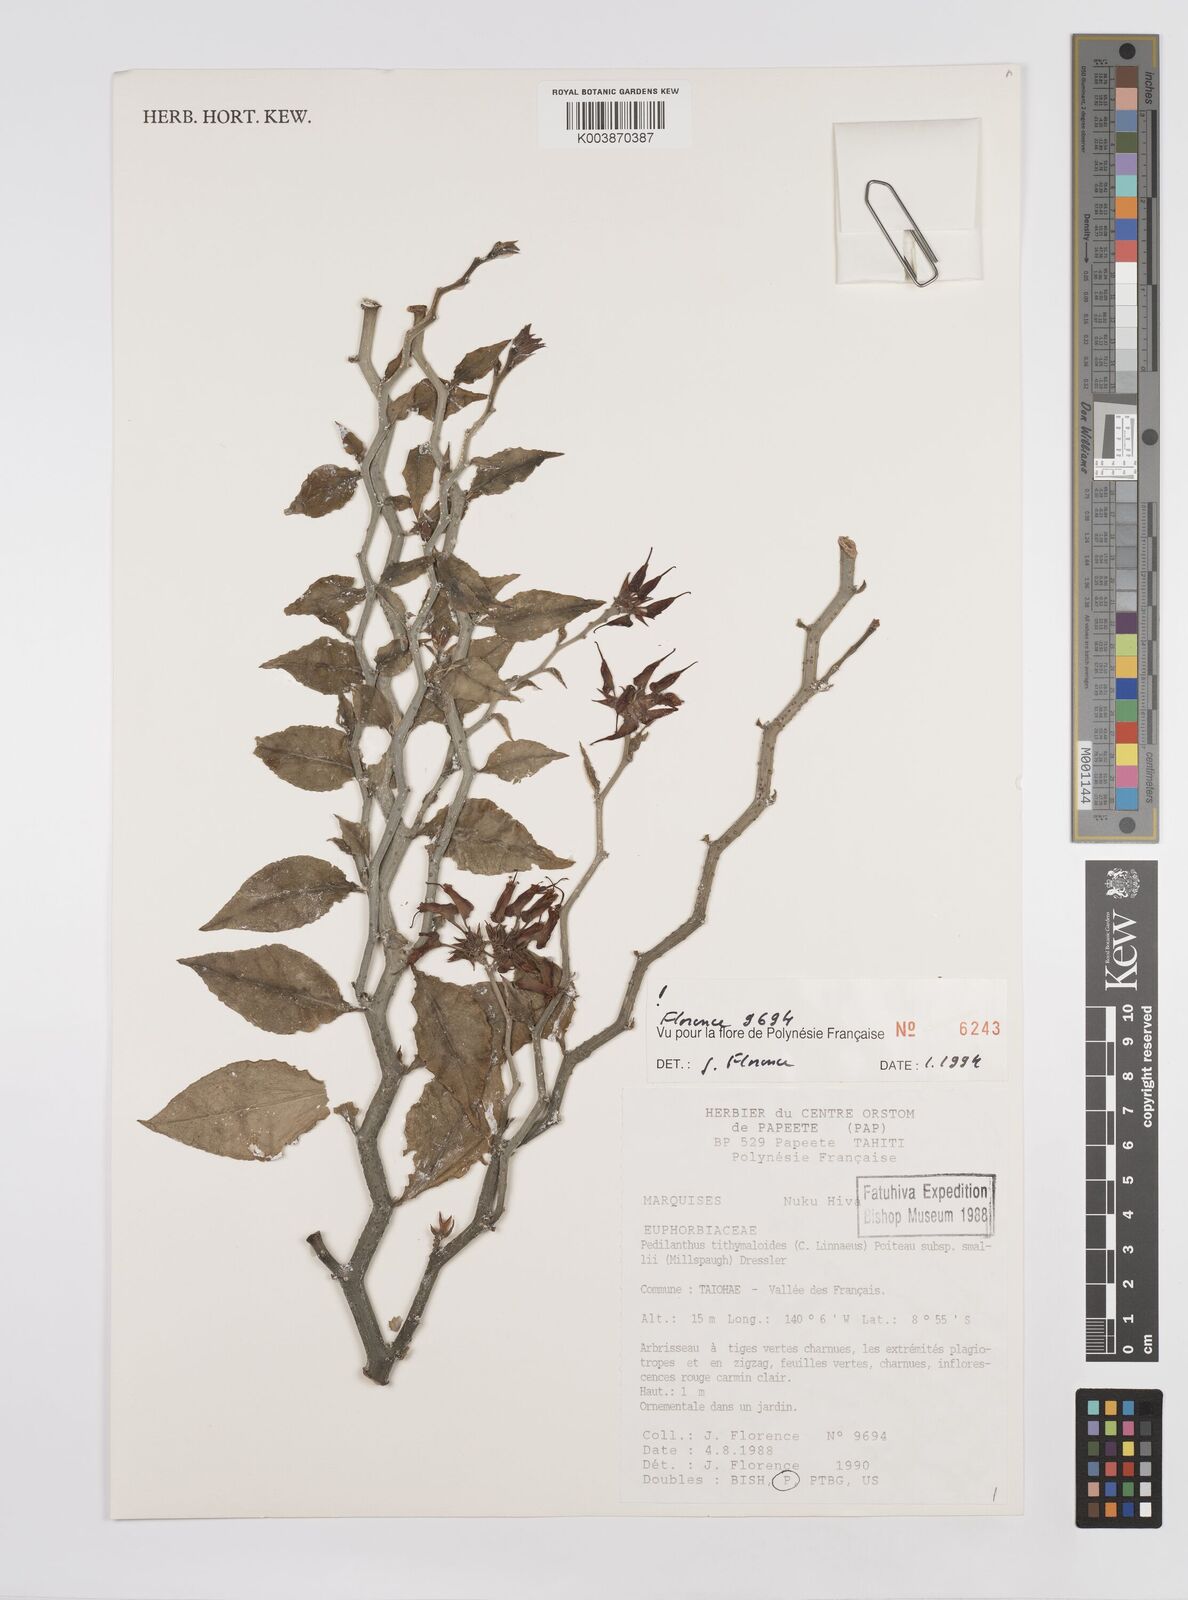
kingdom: Plantae
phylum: Tracheophyta
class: Magnoliopsida
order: Malpighiales
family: Euphorbiaceae
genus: Euphorbia
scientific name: Euphorbia tithymaloides
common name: Slipperplant
